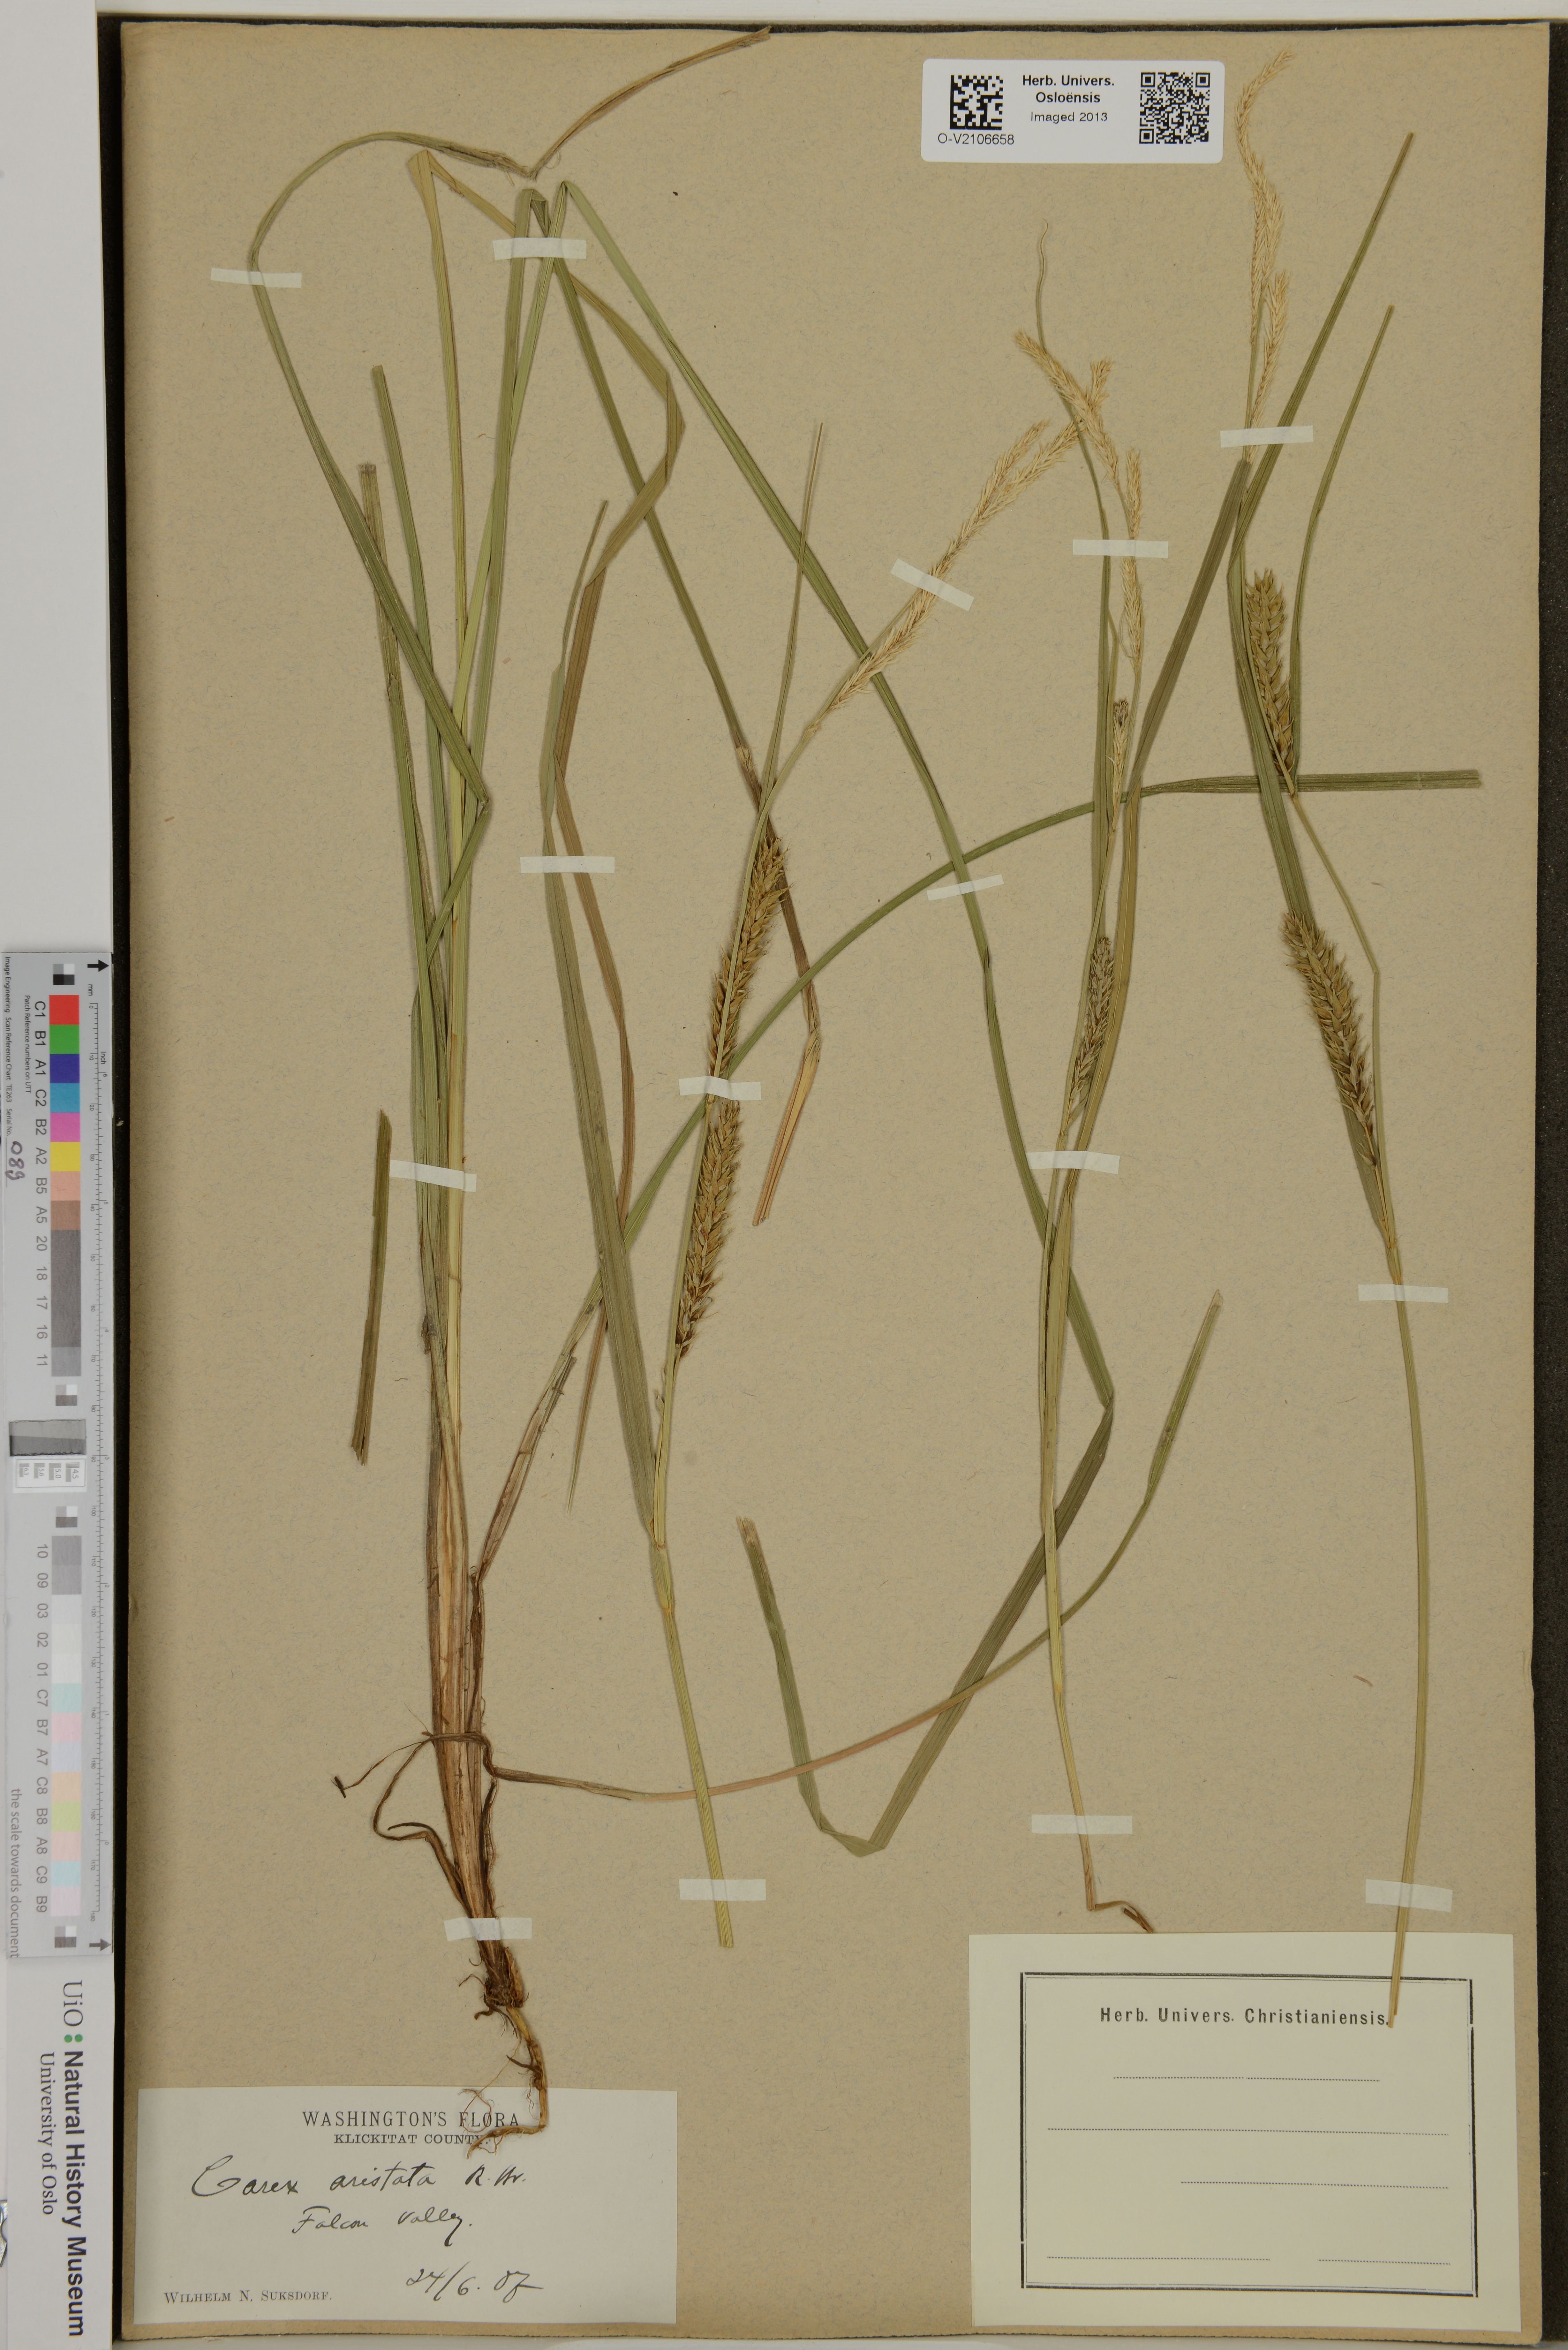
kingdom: Plantae
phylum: Tracheophyta
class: Liliopsida
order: Poales
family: Cyperaceae
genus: Carex
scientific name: Carex atherodes
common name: Wheat sedge
